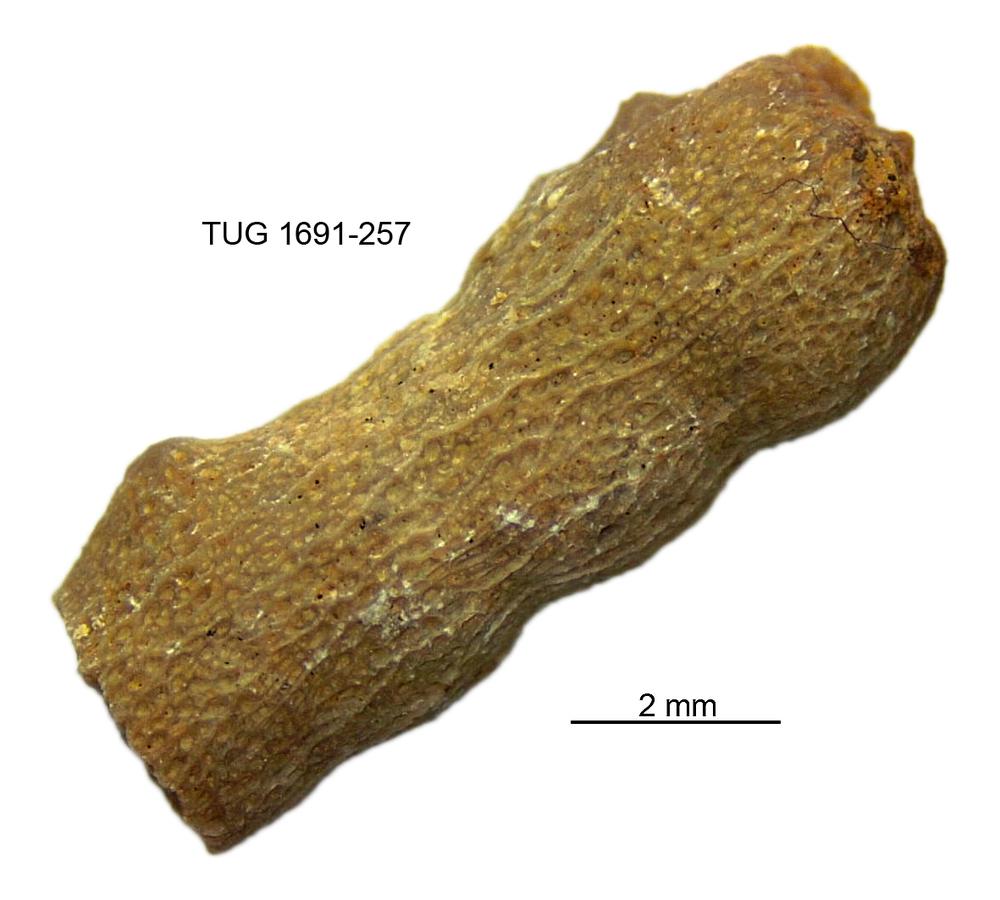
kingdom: Animalia
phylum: Bryozoa
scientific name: Bryozoa
